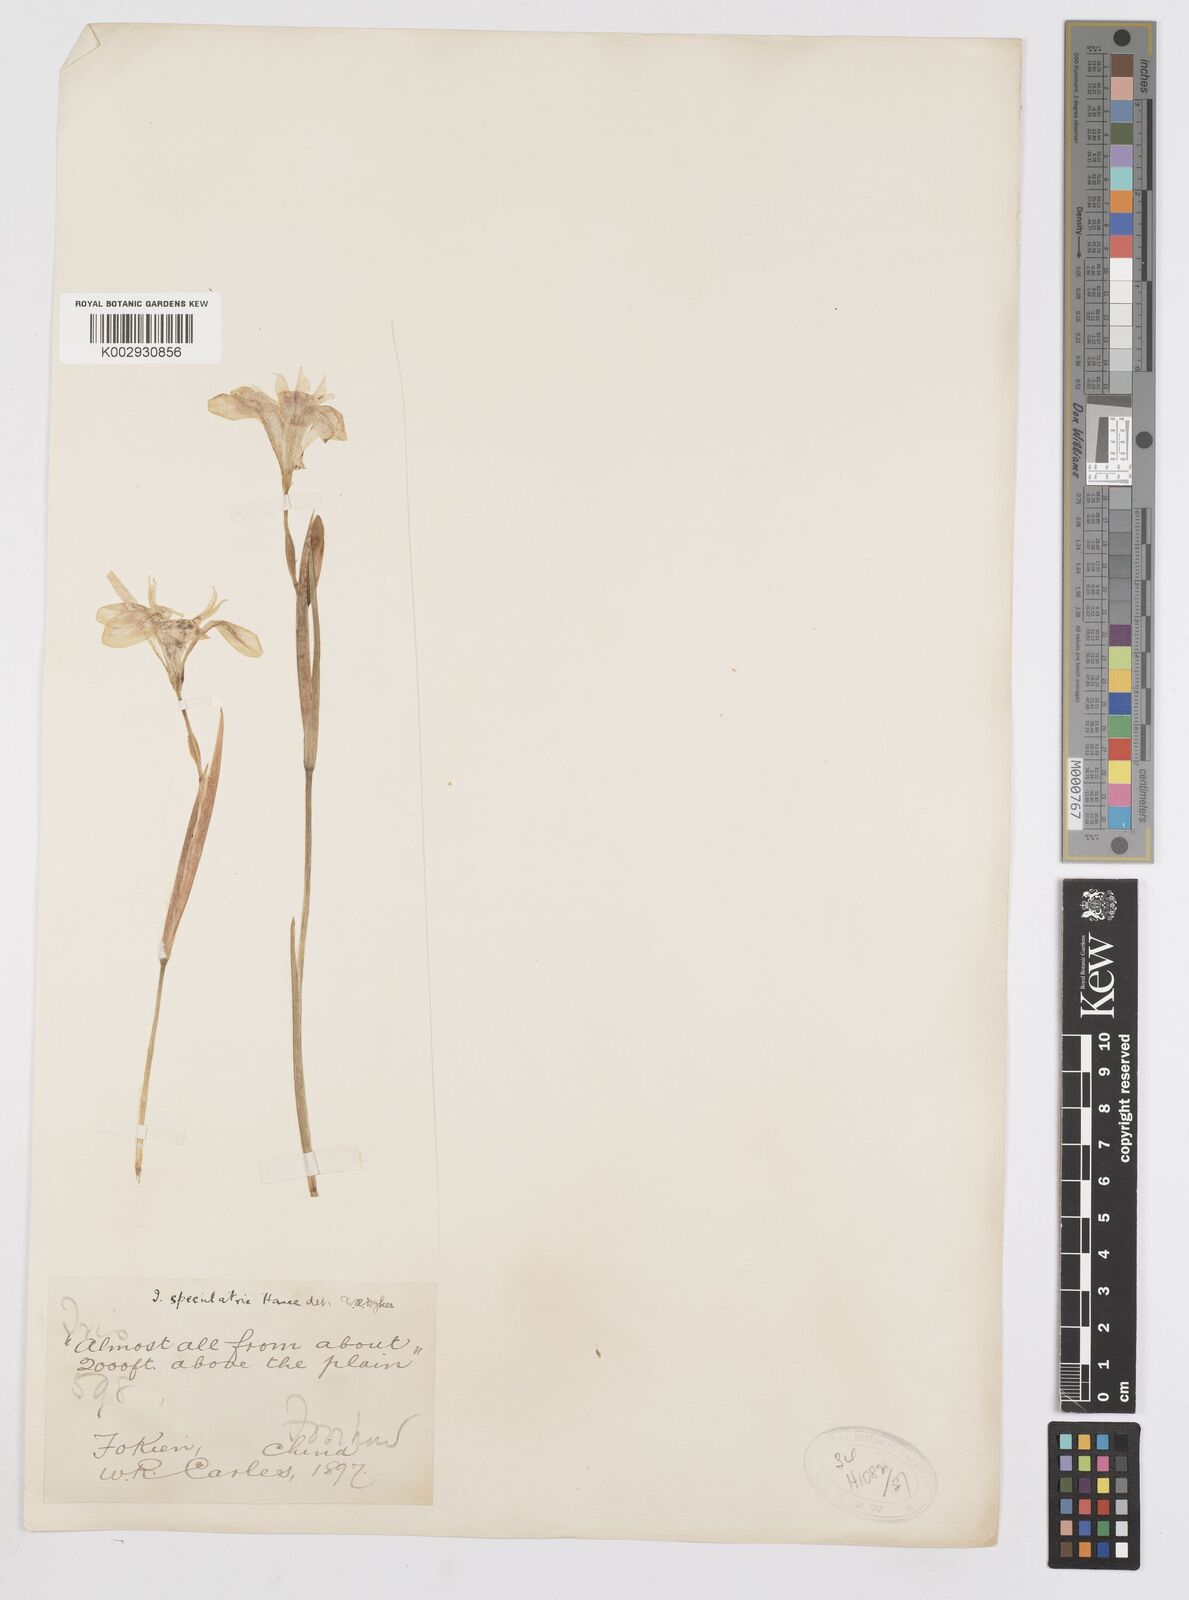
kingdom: Plantae
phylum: Tracheophyta
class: Liliopsida
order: Asparagales
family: Iridaceae
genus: Iris
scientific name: Iris speculatrix
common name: Small-flower iris
